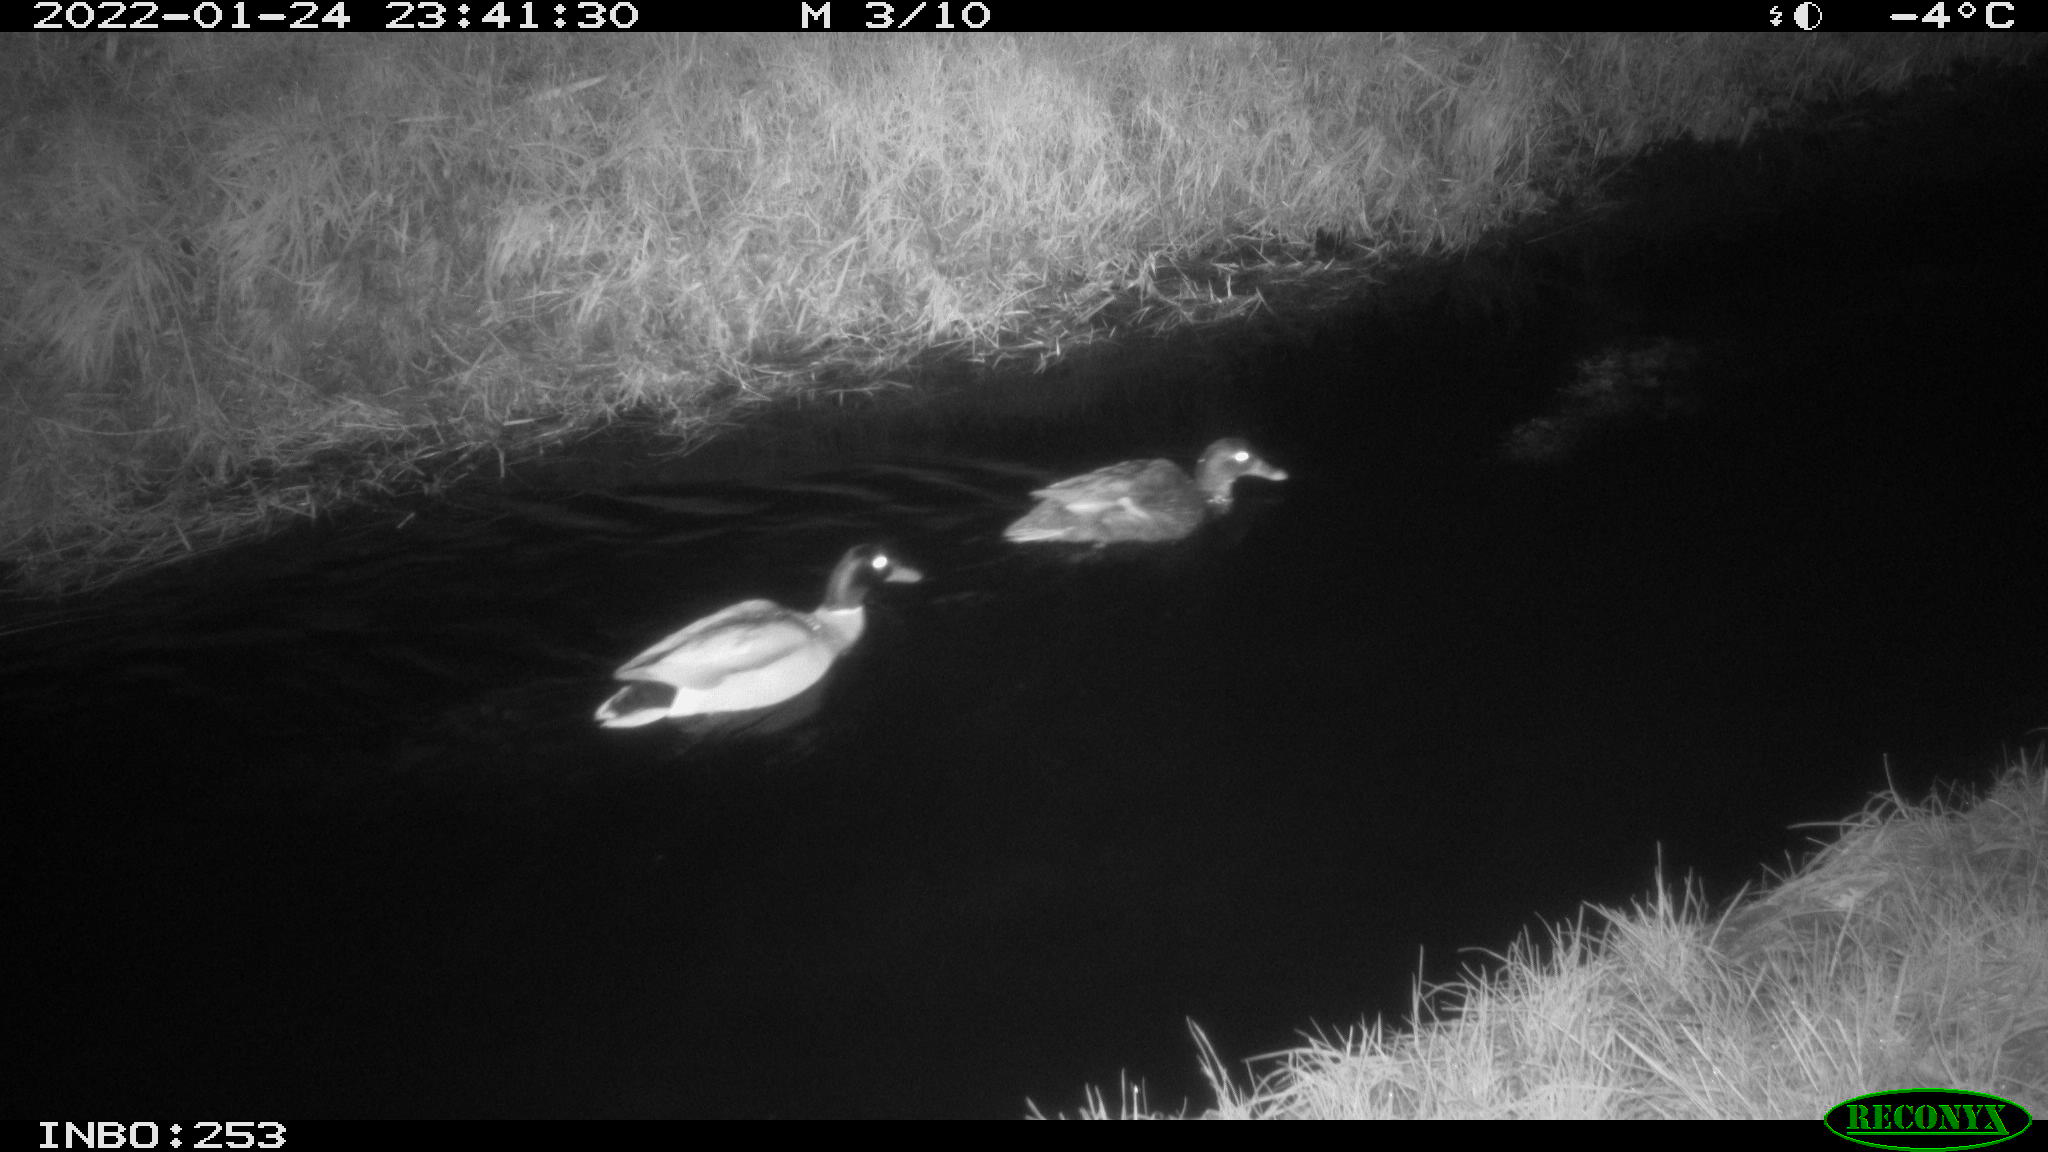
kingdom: Animalia
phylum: Chordata
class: Aves
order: Anseriformes
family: Anatidae
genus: Anas
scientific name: Anas
